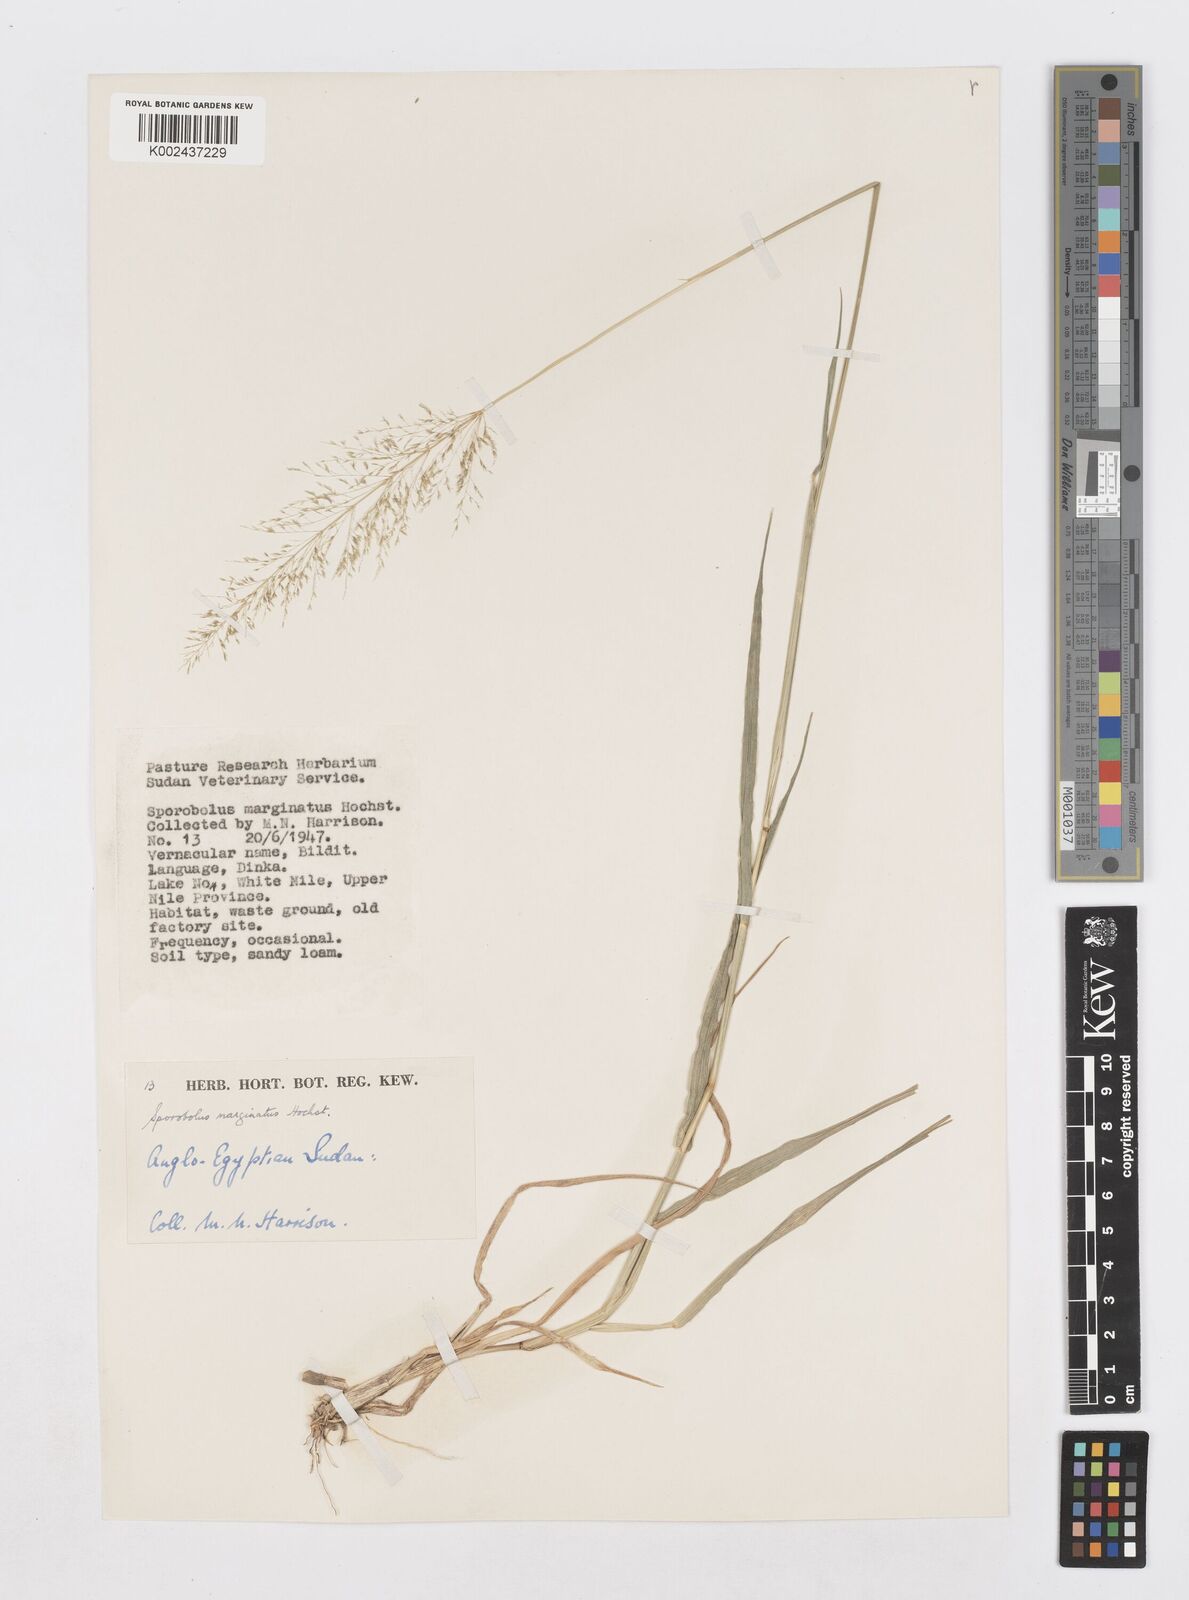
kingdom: Plantae
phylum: Tracheophyta
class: Liliopsida
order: Poales
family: Poaceae
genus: Sporobolus
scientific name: Sporobolus ioclados
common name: Pan dropseed
